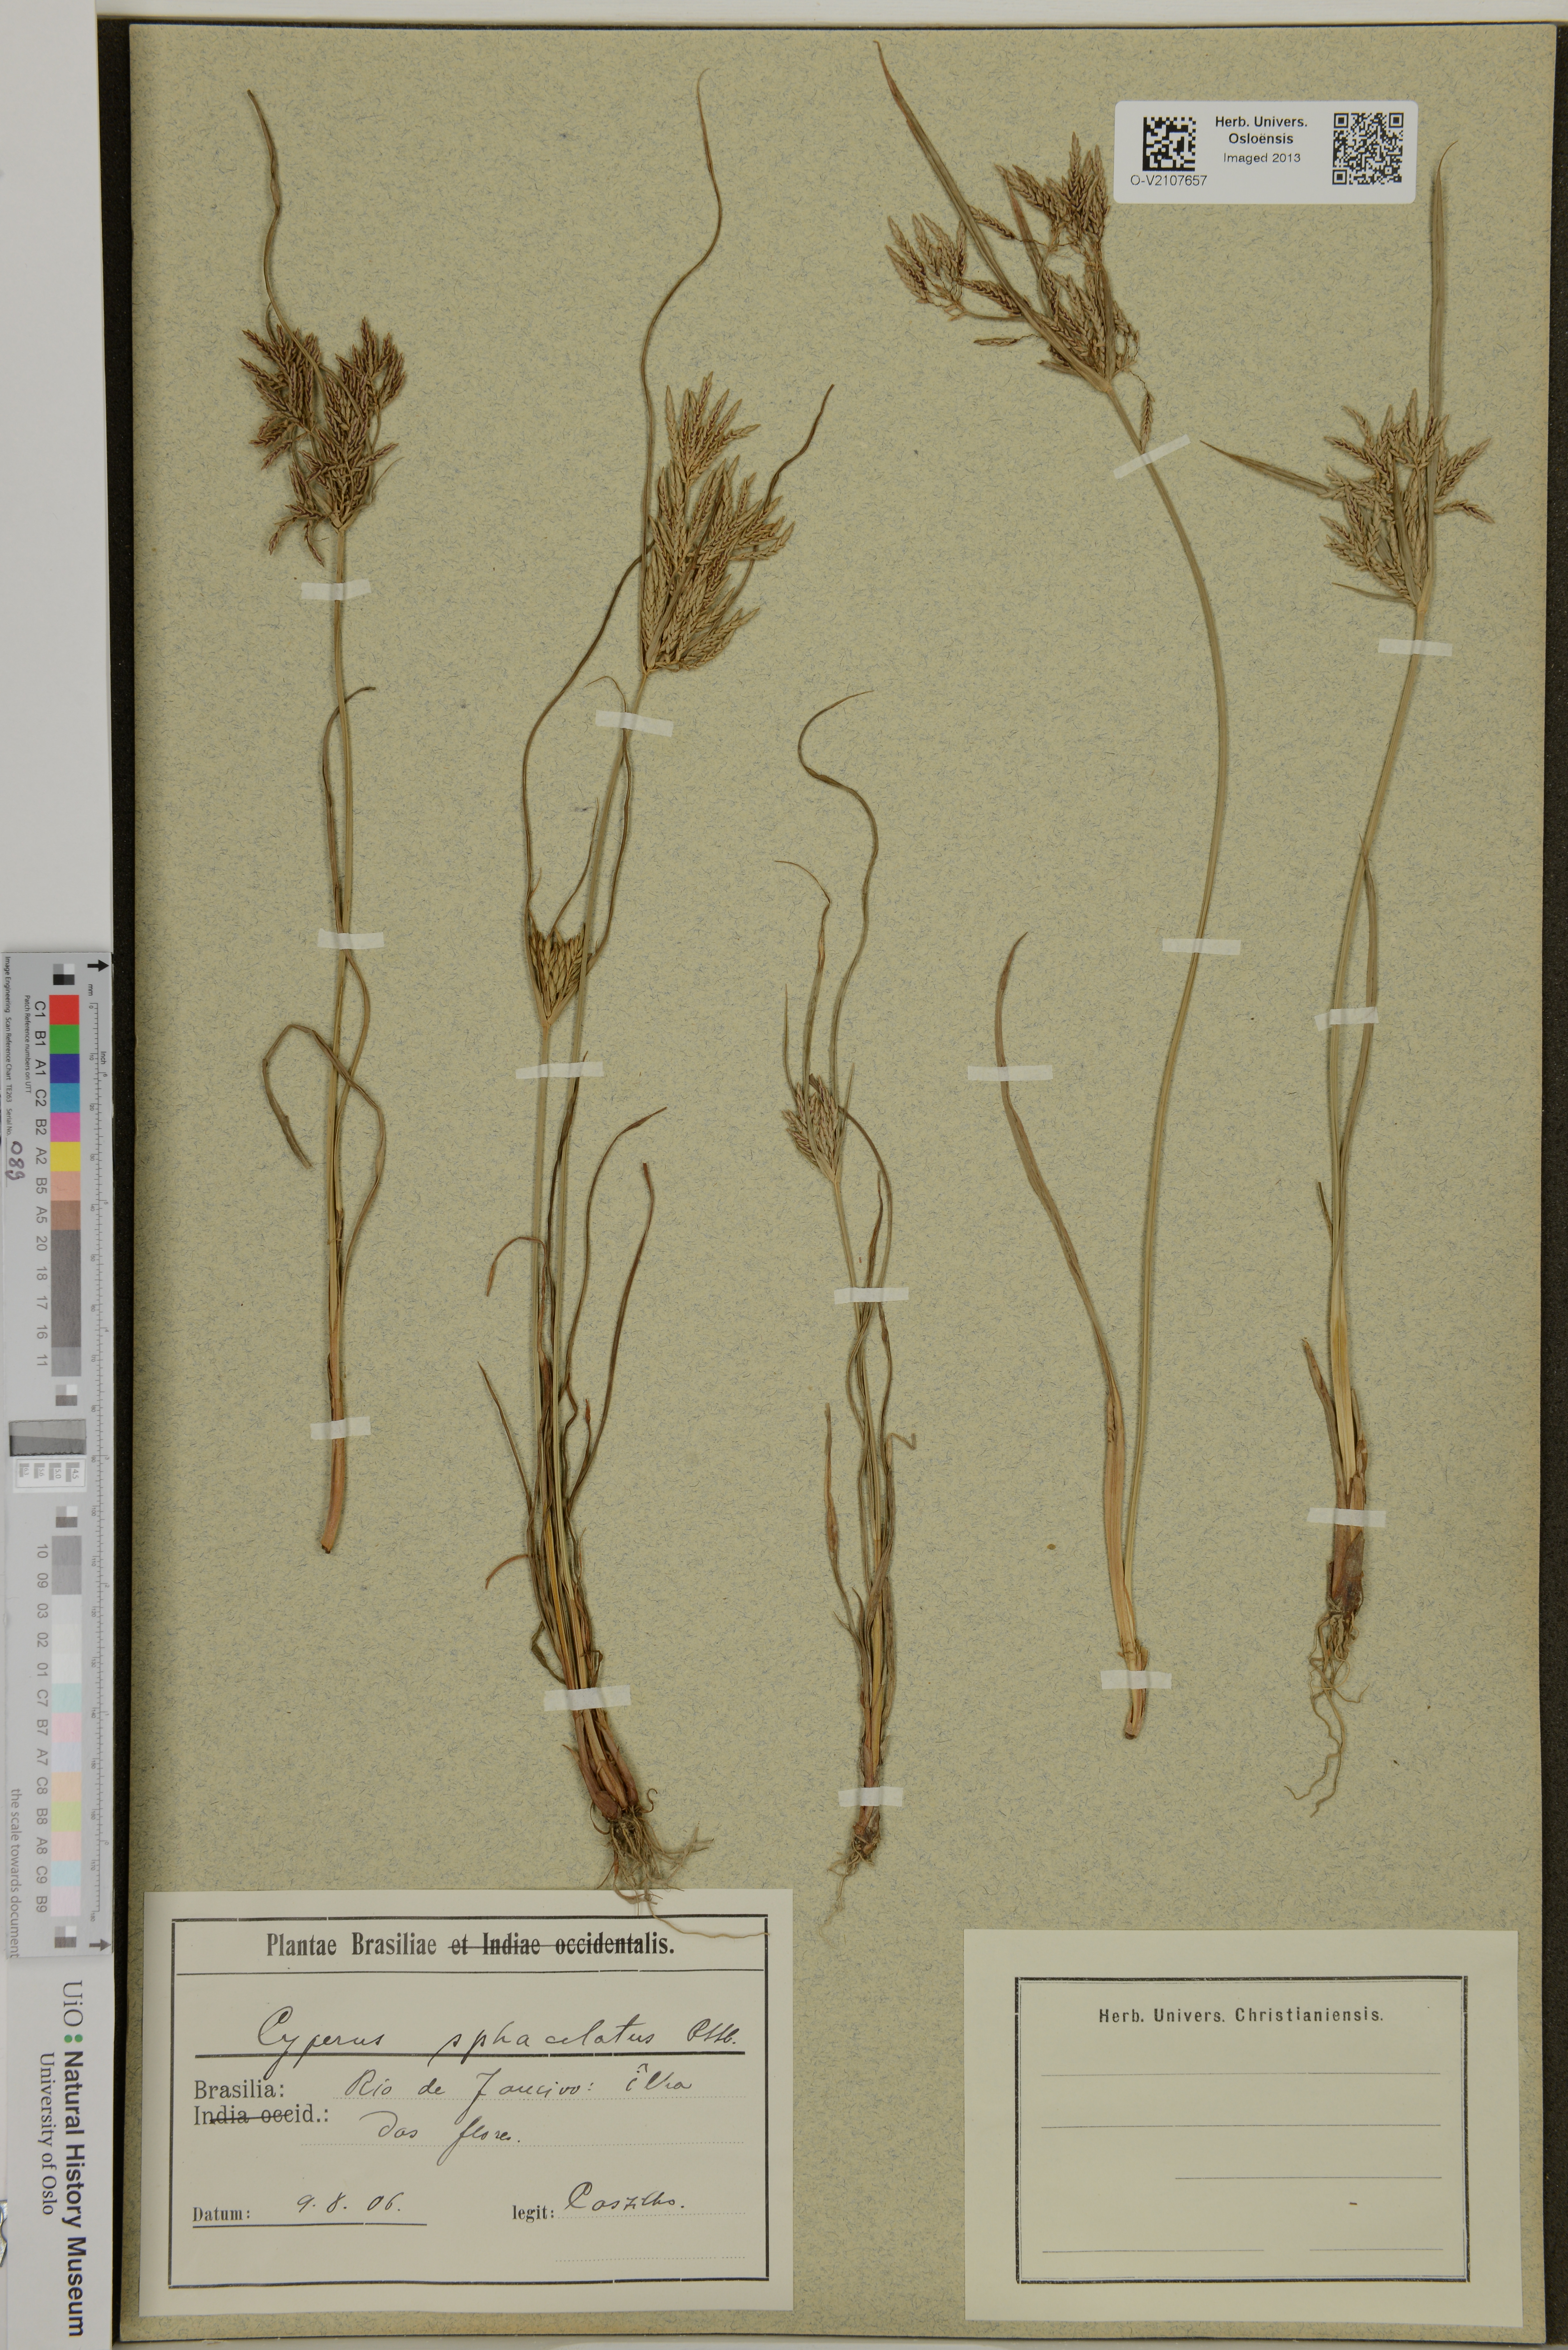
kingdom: Plantae
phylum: Tracheophyta
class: Liliopsida
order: Poales
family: Cyperaceae
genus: Cyperus
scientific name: Cyperus sphacelatus
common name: Roadside flatsedge
